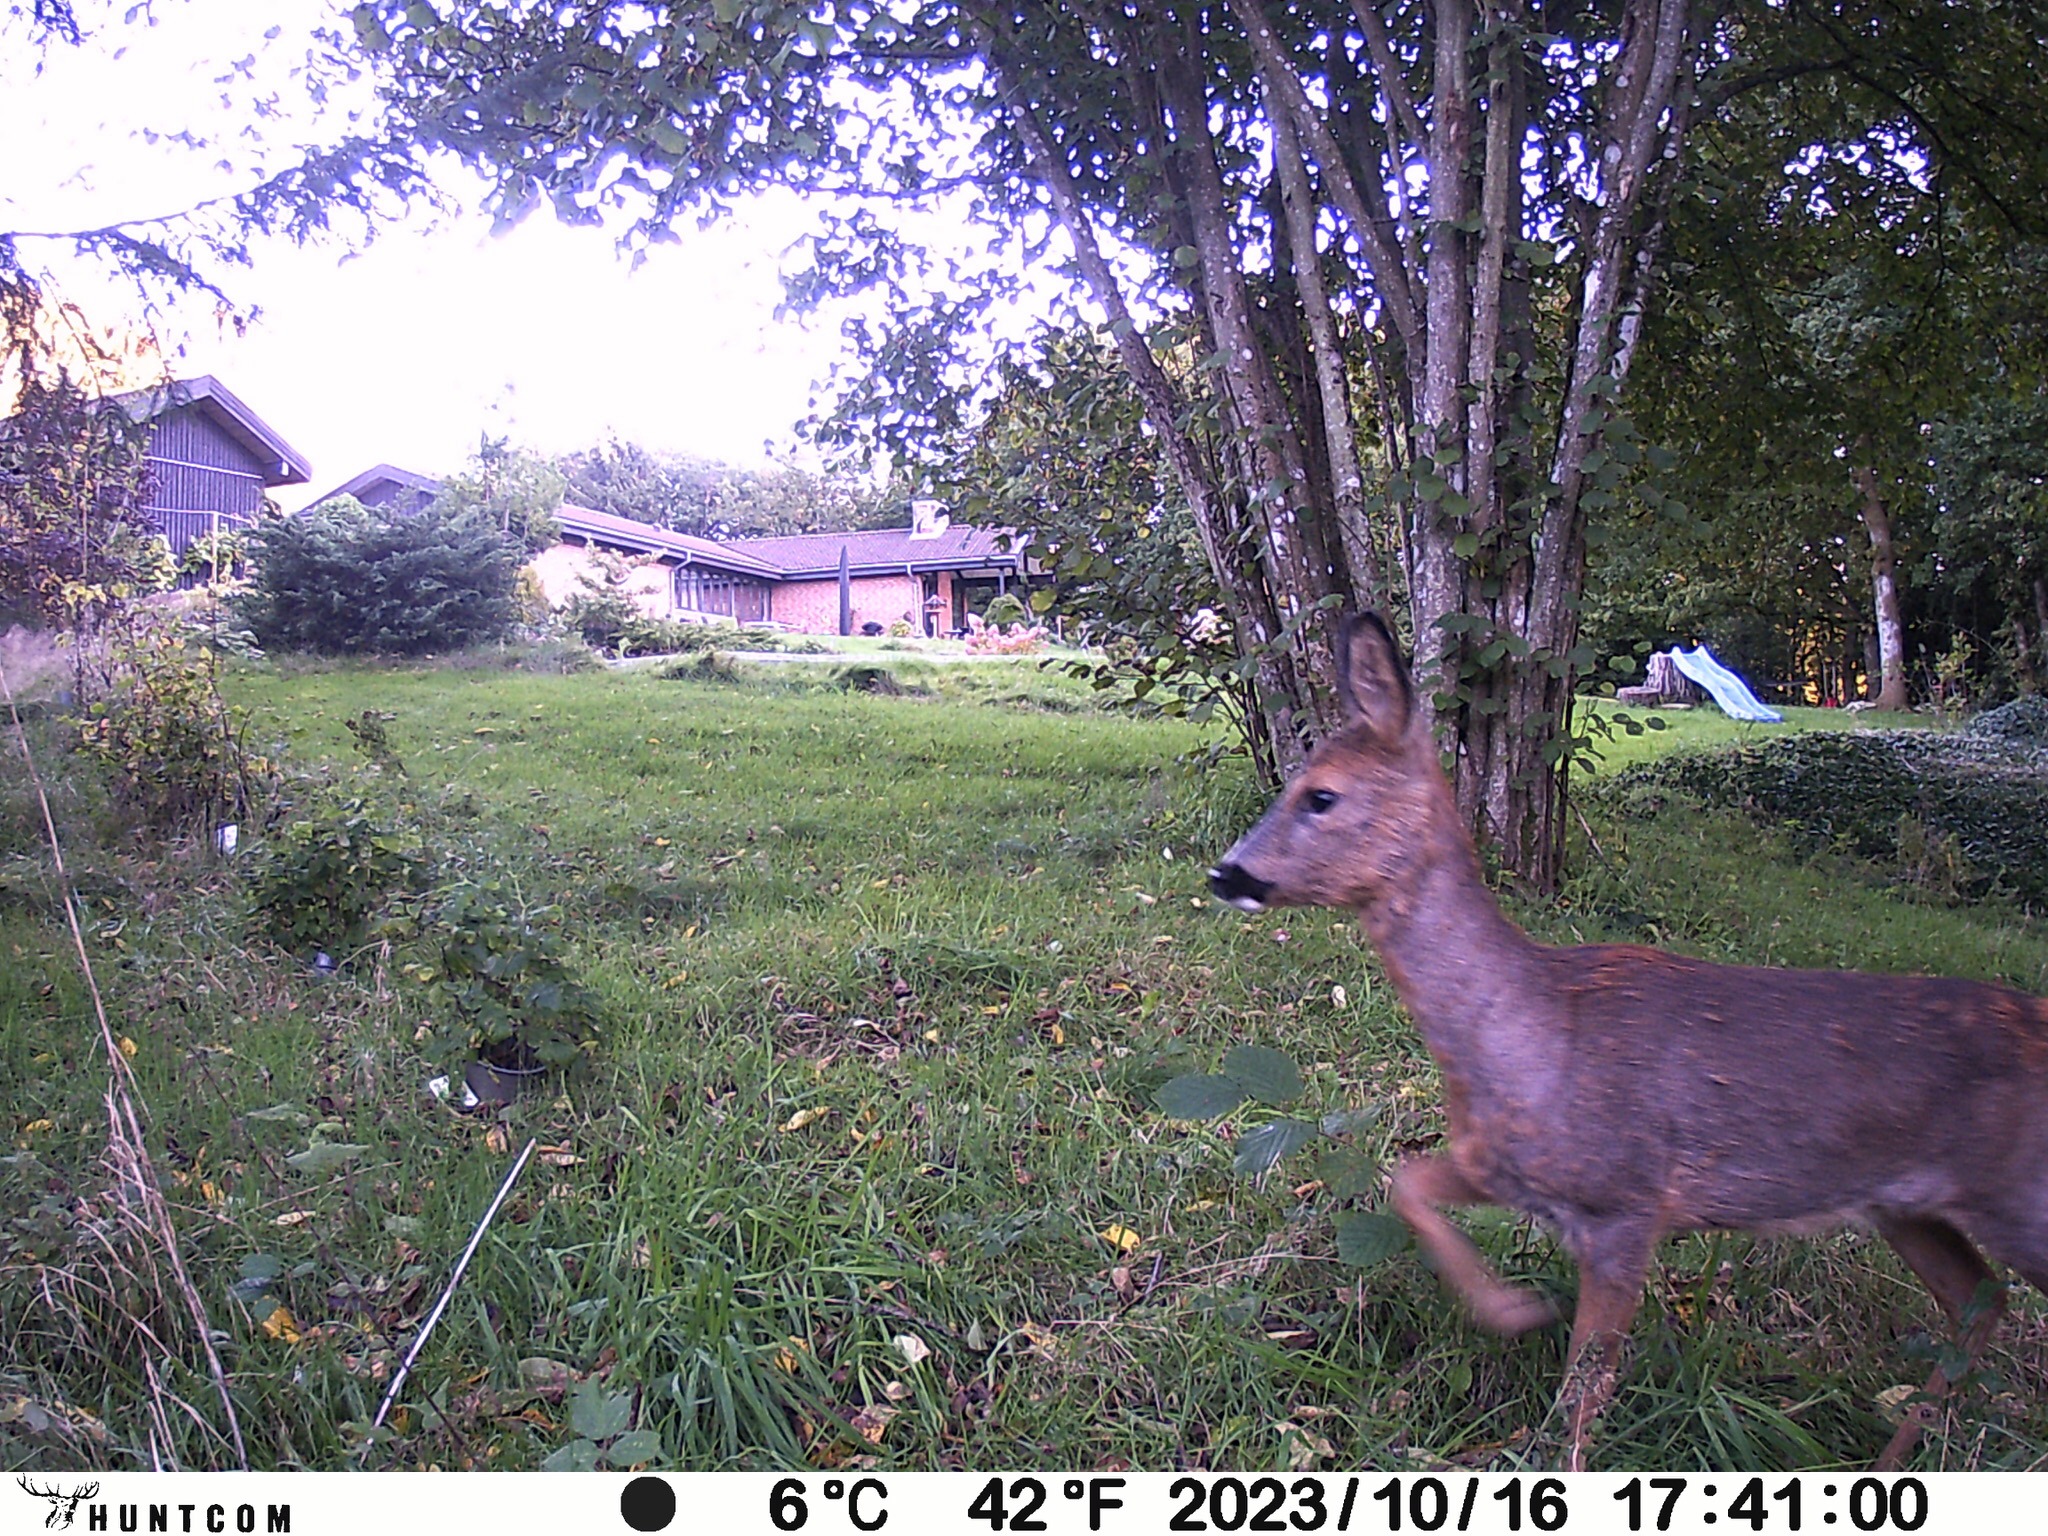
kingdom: Animalia
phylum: Chordata
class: Mammalia
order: Artiodactyla
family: Cervidae
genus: Capreolus
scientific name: Capreolus capreolus
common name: Rådyr
